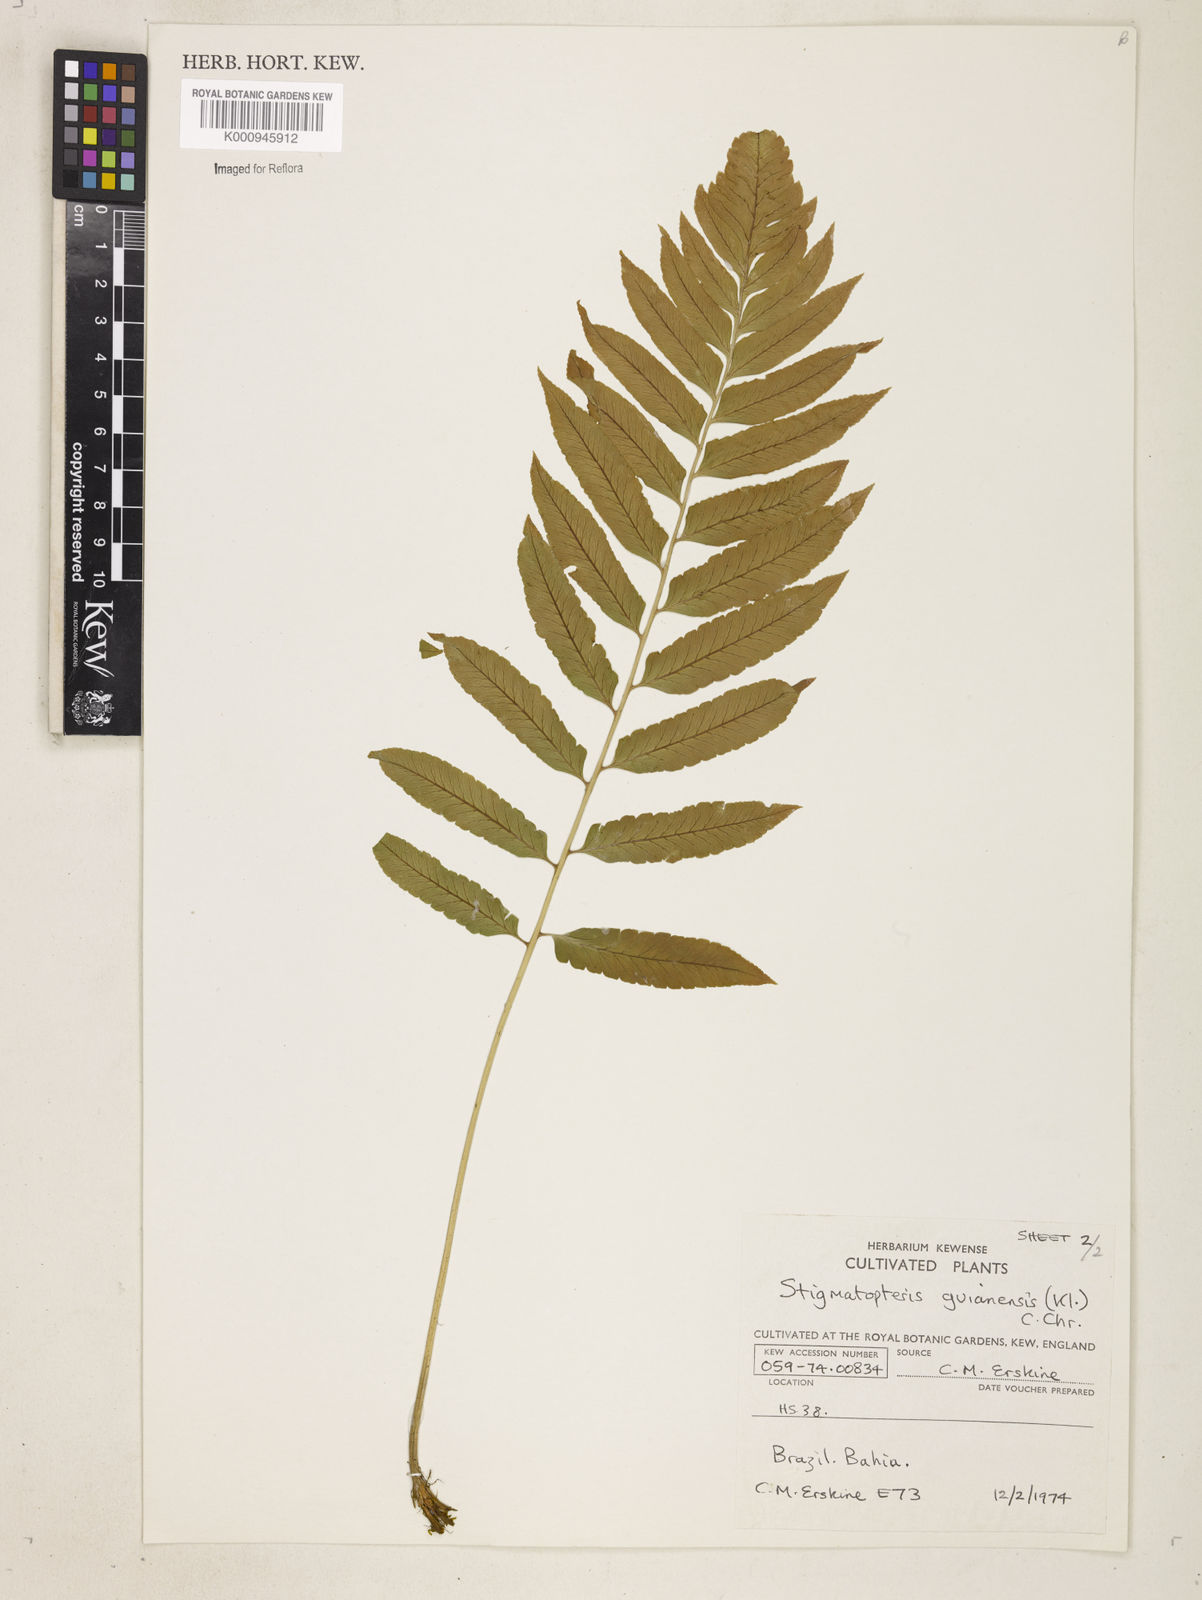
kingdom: Plantae
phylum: Tracheophyta
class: Polypodiopsida
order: Polypodiales
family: Dryopteridaceae
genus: Cyclodium
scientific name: Cyclodium
